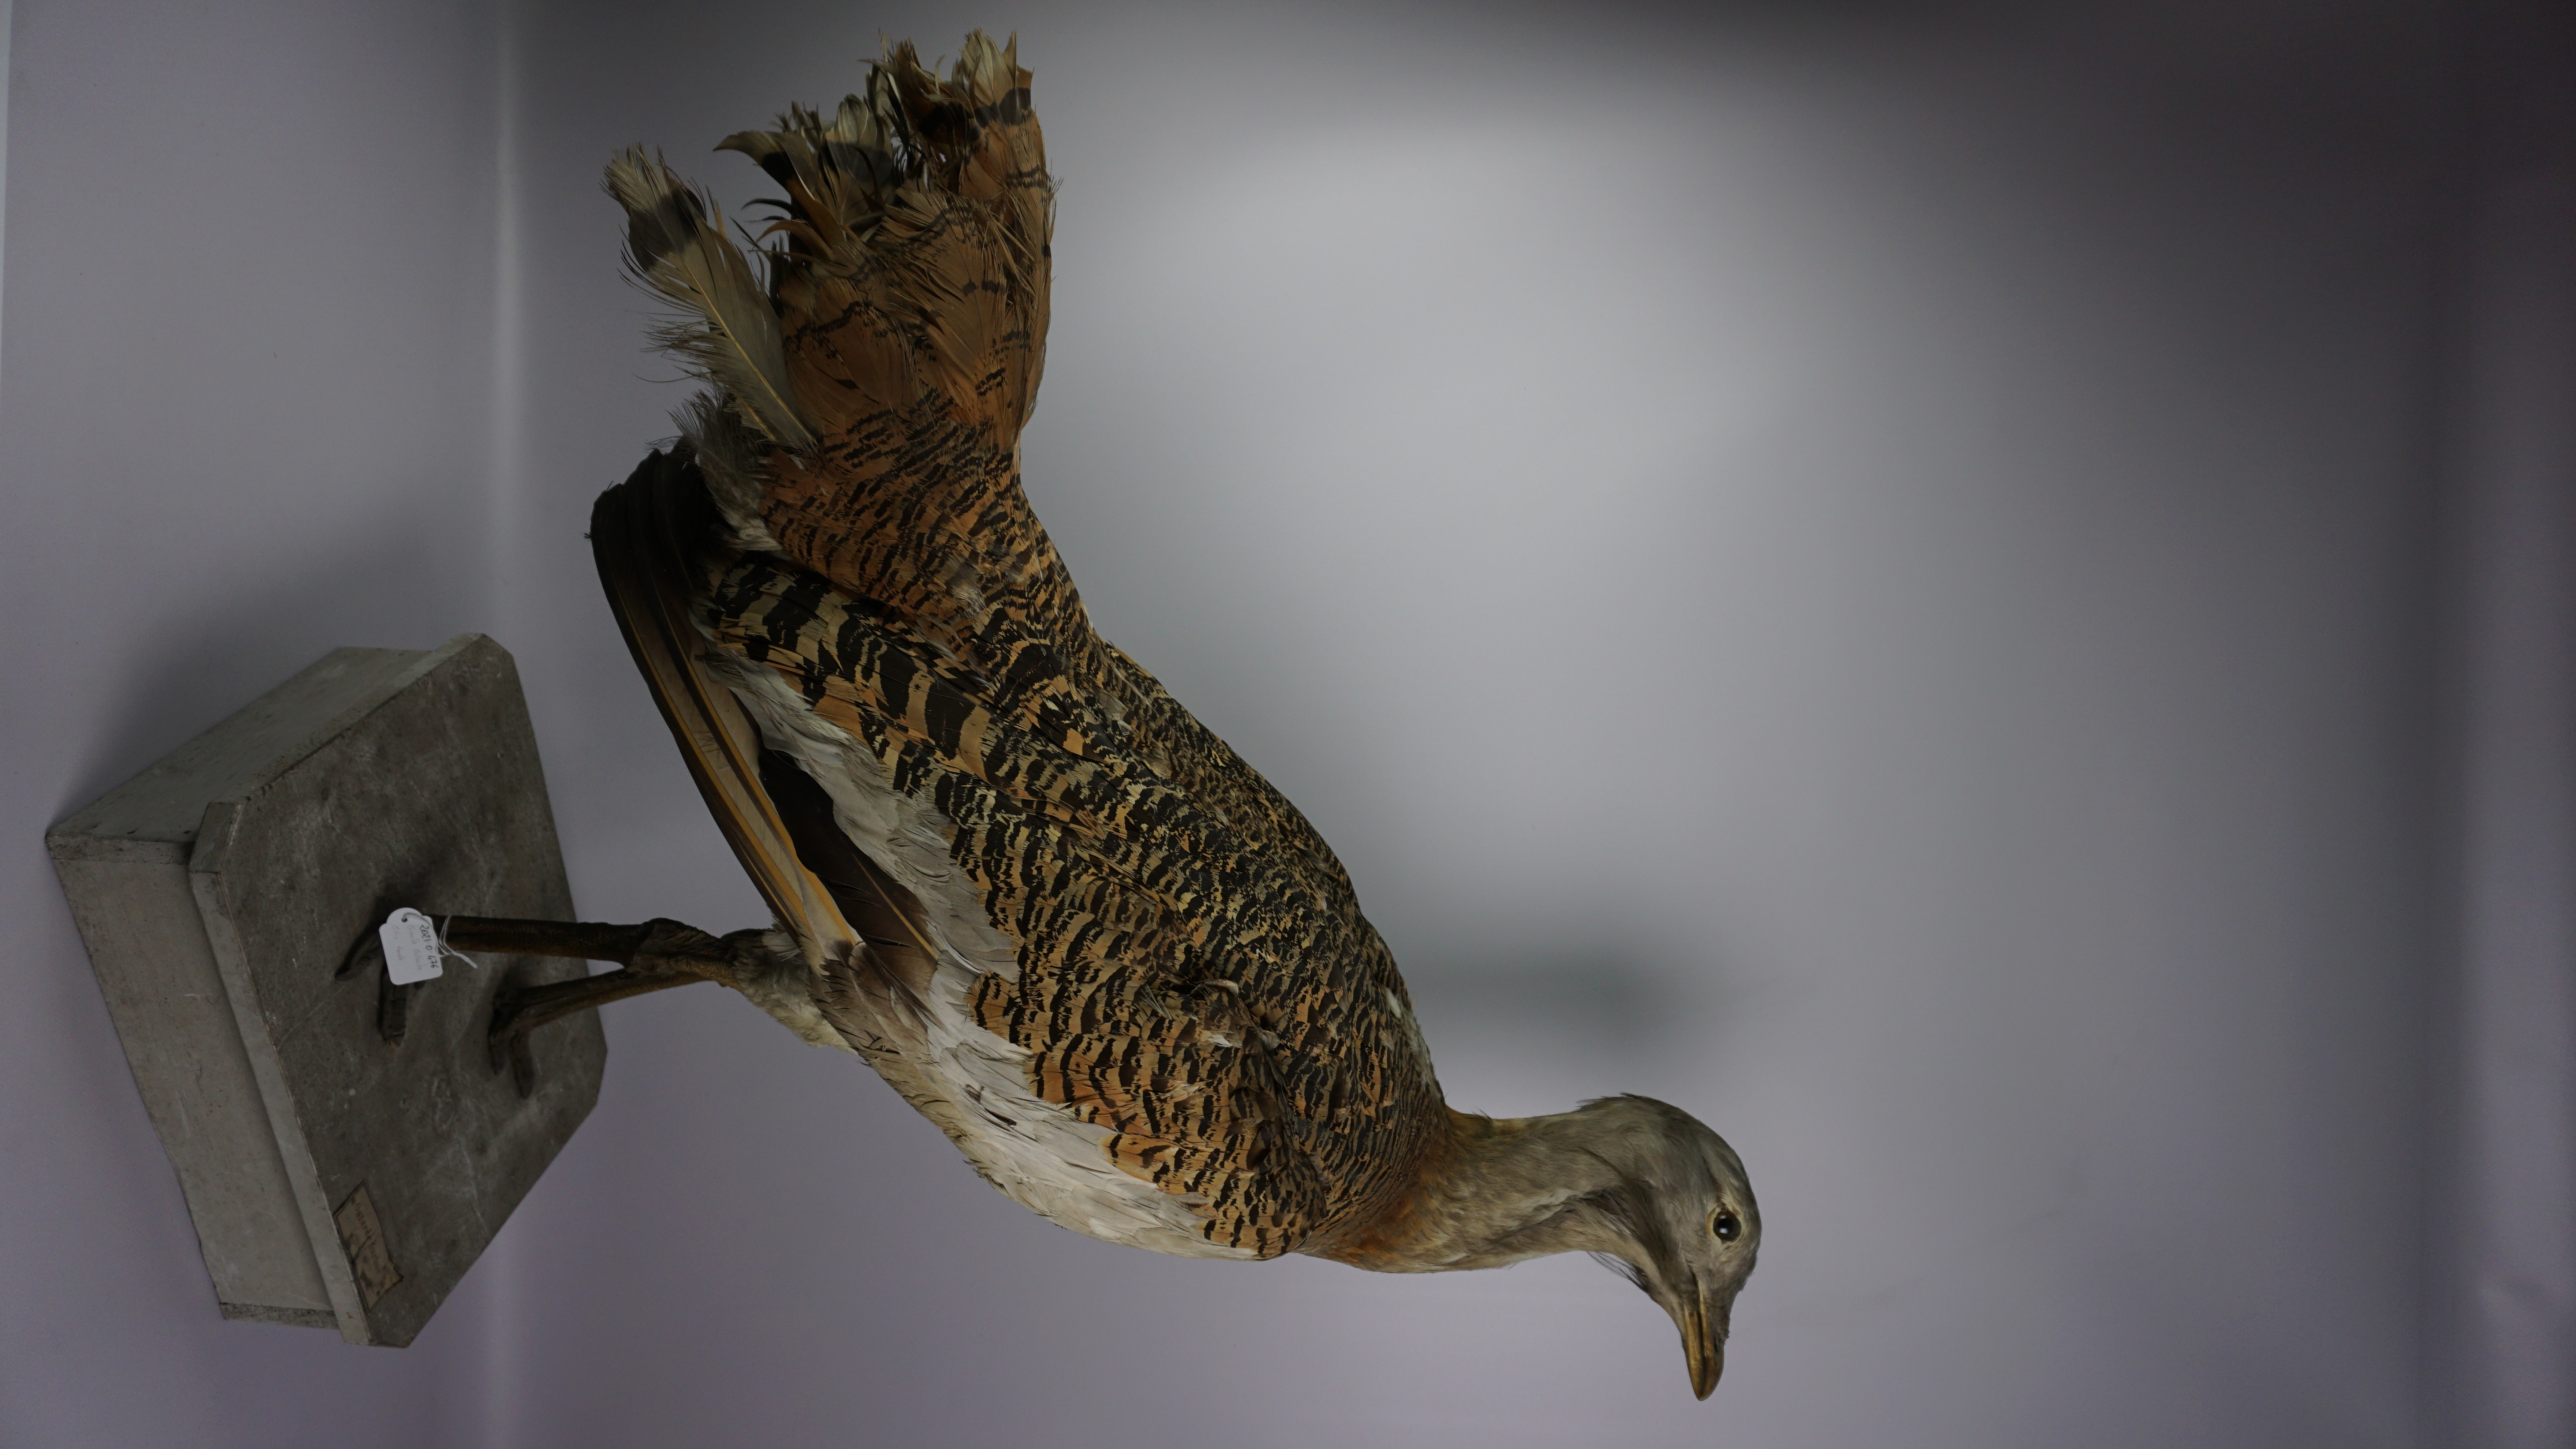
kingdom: Animalia
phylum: Chordata
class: Aves
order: Otidiformes
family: Otididae
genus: Otis
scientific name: Otis tarda
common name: Great bustard
